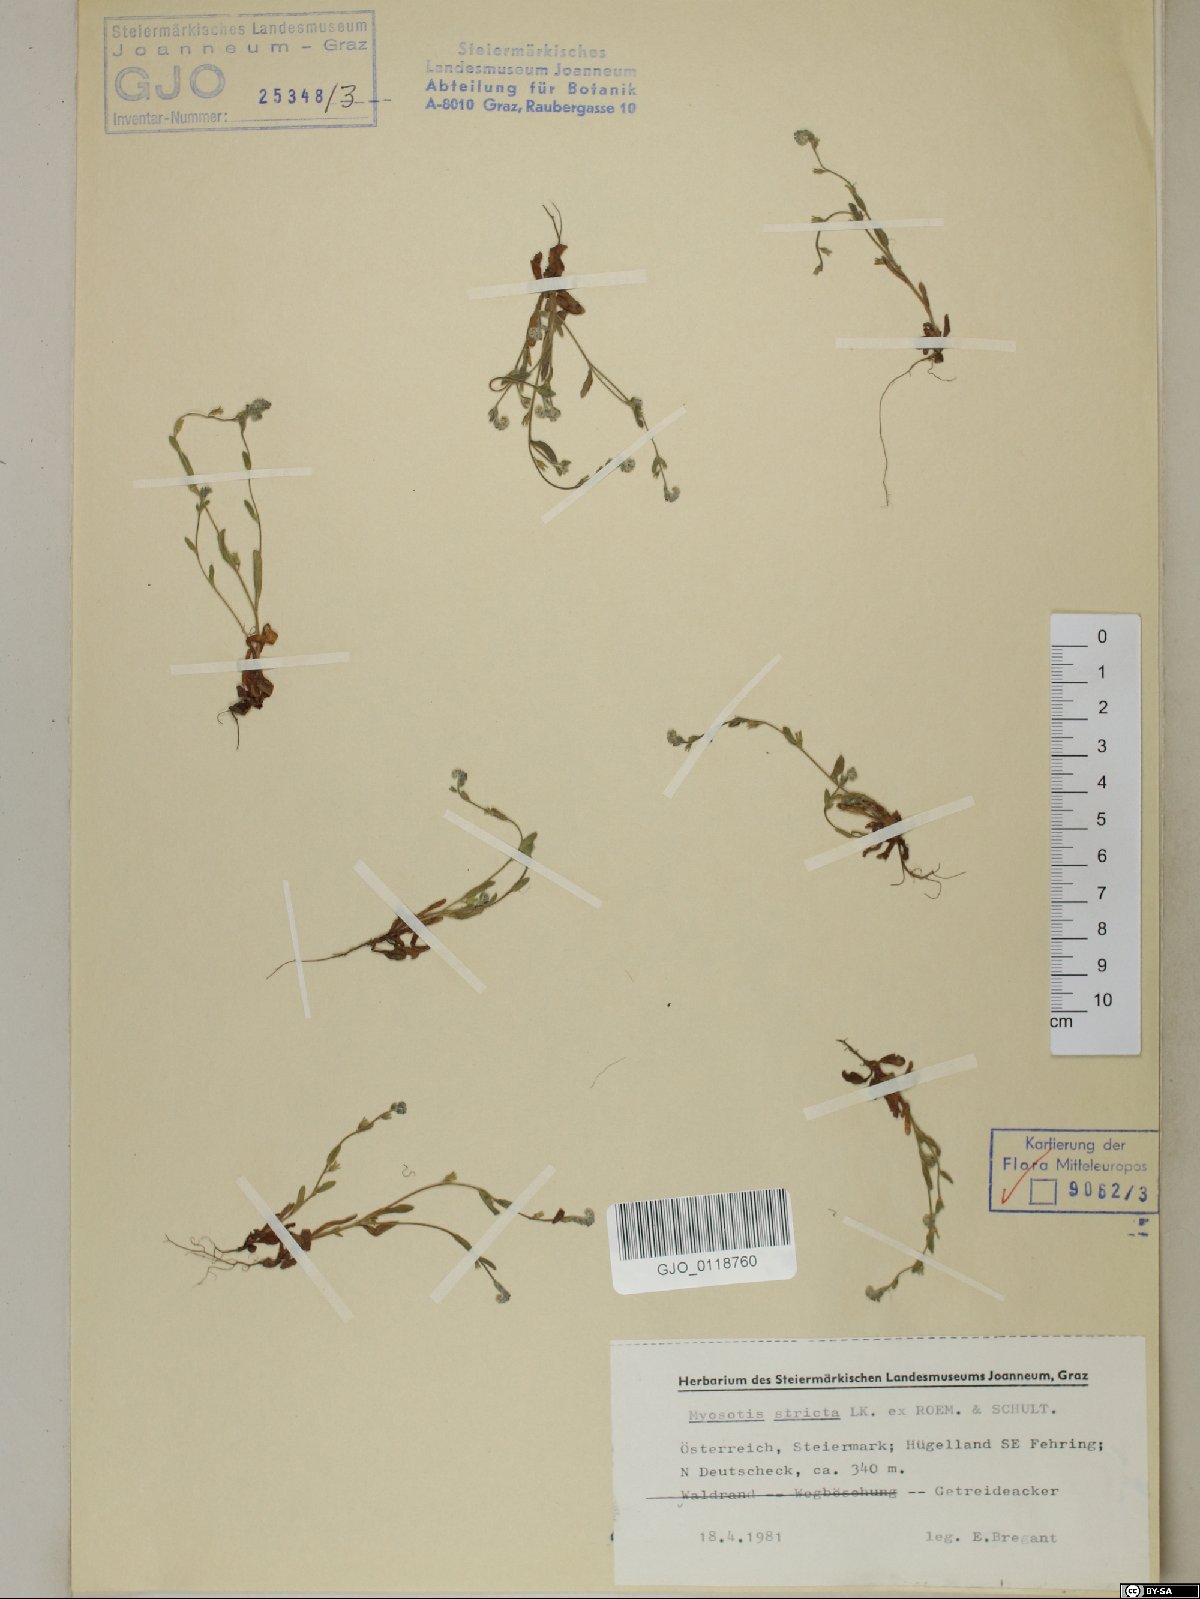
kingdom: Plantae
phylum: Tracheophyta
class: Magnoliopsida
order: Boraginales
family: Boraginaceae
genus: Myosotis
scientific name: Myosotis stricta
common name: Strict forget-me-not
